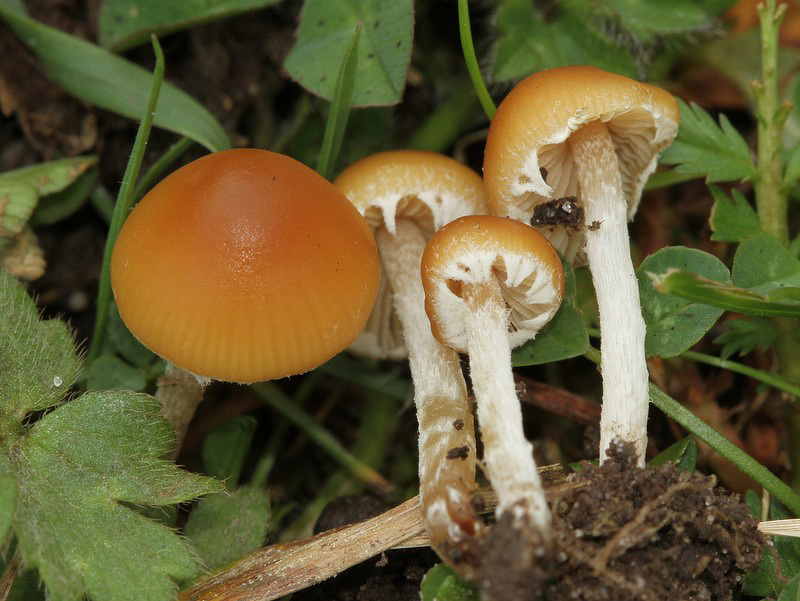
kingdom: Fungi
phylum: Basidiomycota
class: Agaricomycetes
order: Agaricales
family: Bolbitiaceae
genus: Conocybe
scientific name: Conocybe exannulata
